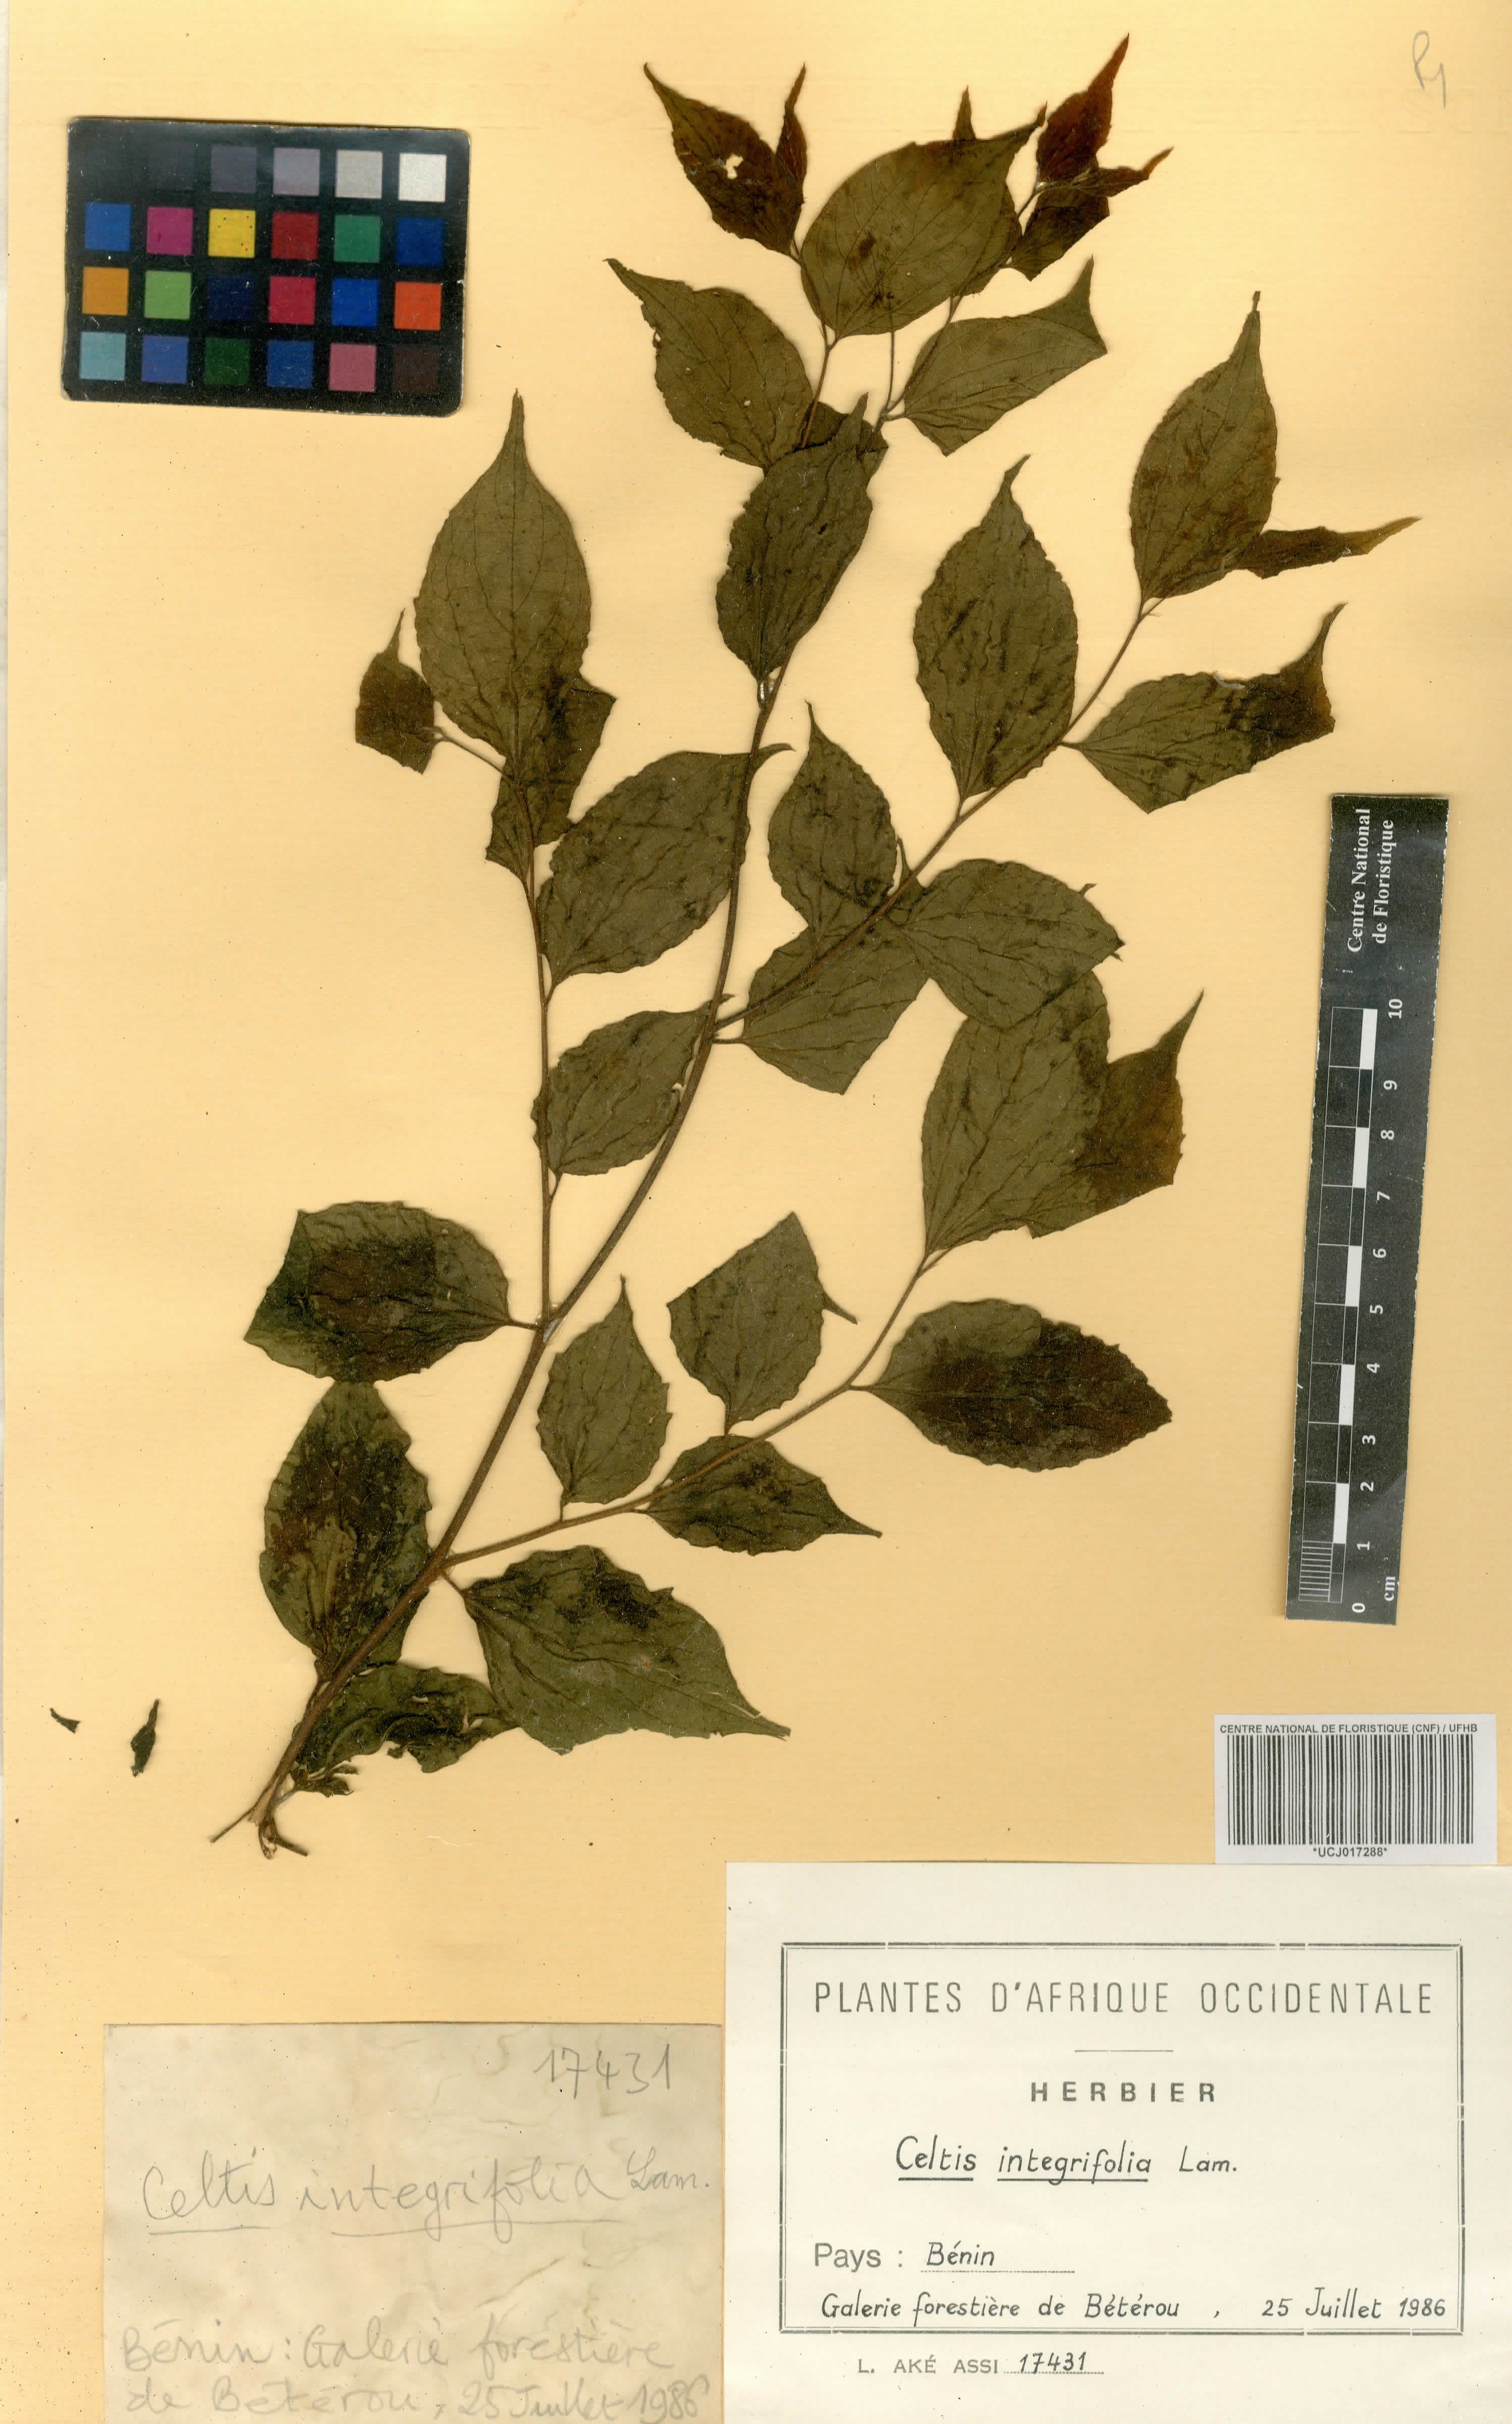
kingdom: Plantae
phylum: Tracheophyta
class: Magnoliopsida
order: Rosales
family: Cannabaceae
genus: Celtis
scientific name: Celtis toka
